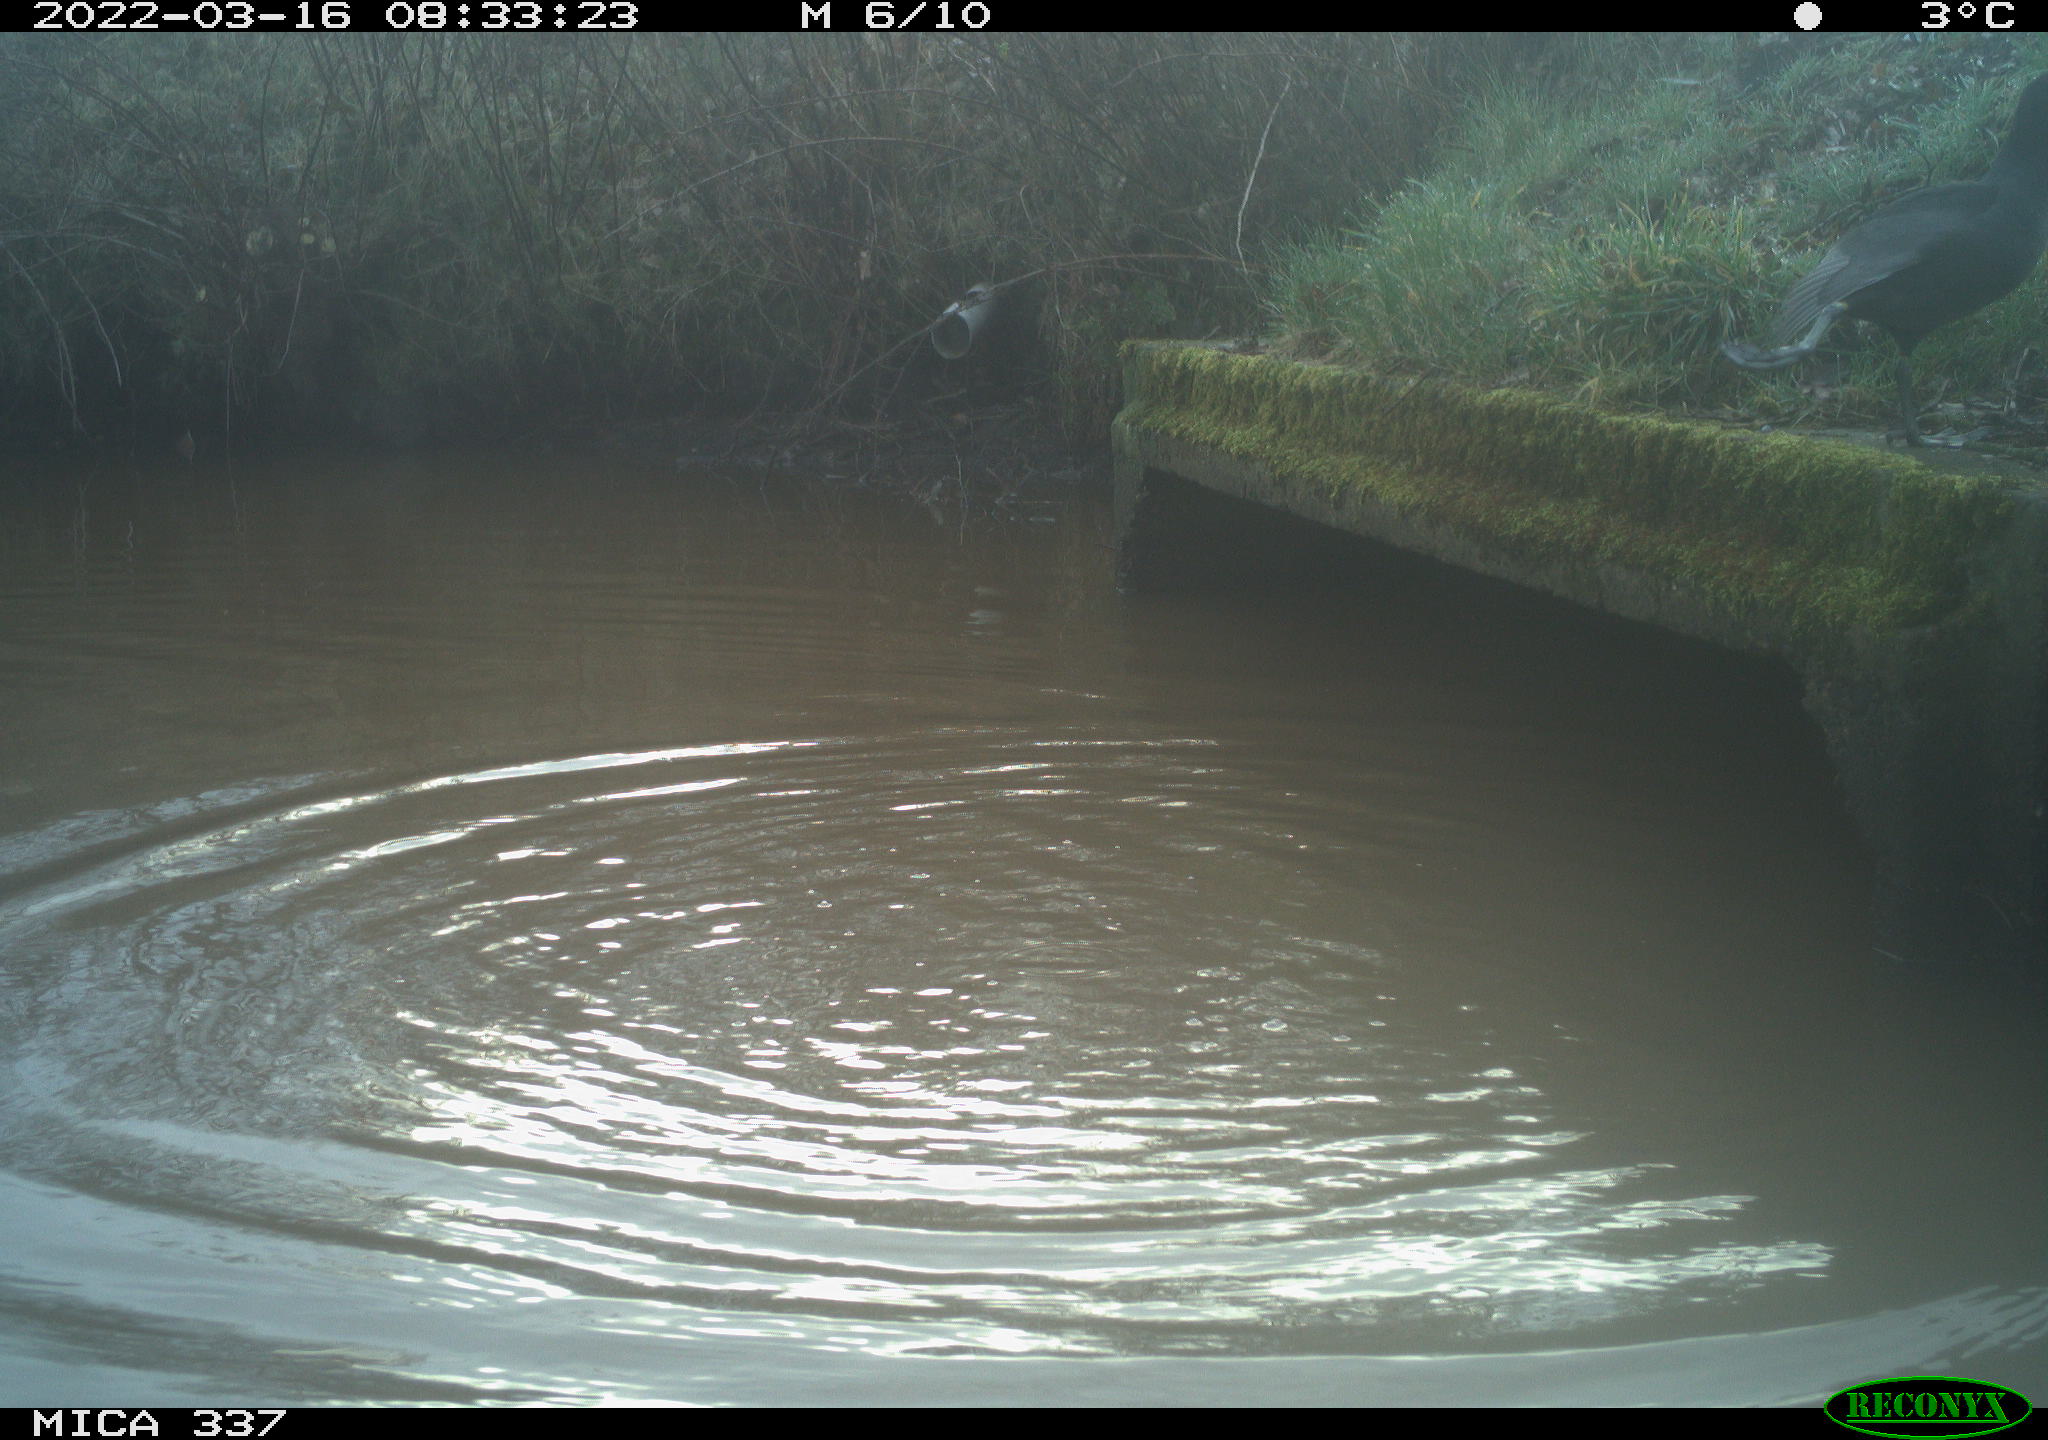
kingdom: Animalia
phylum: Chordata
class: Aves
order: Gruiformes
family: Rallidae
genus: Fulica
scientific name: Fulica atra
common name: Eurasian coot
